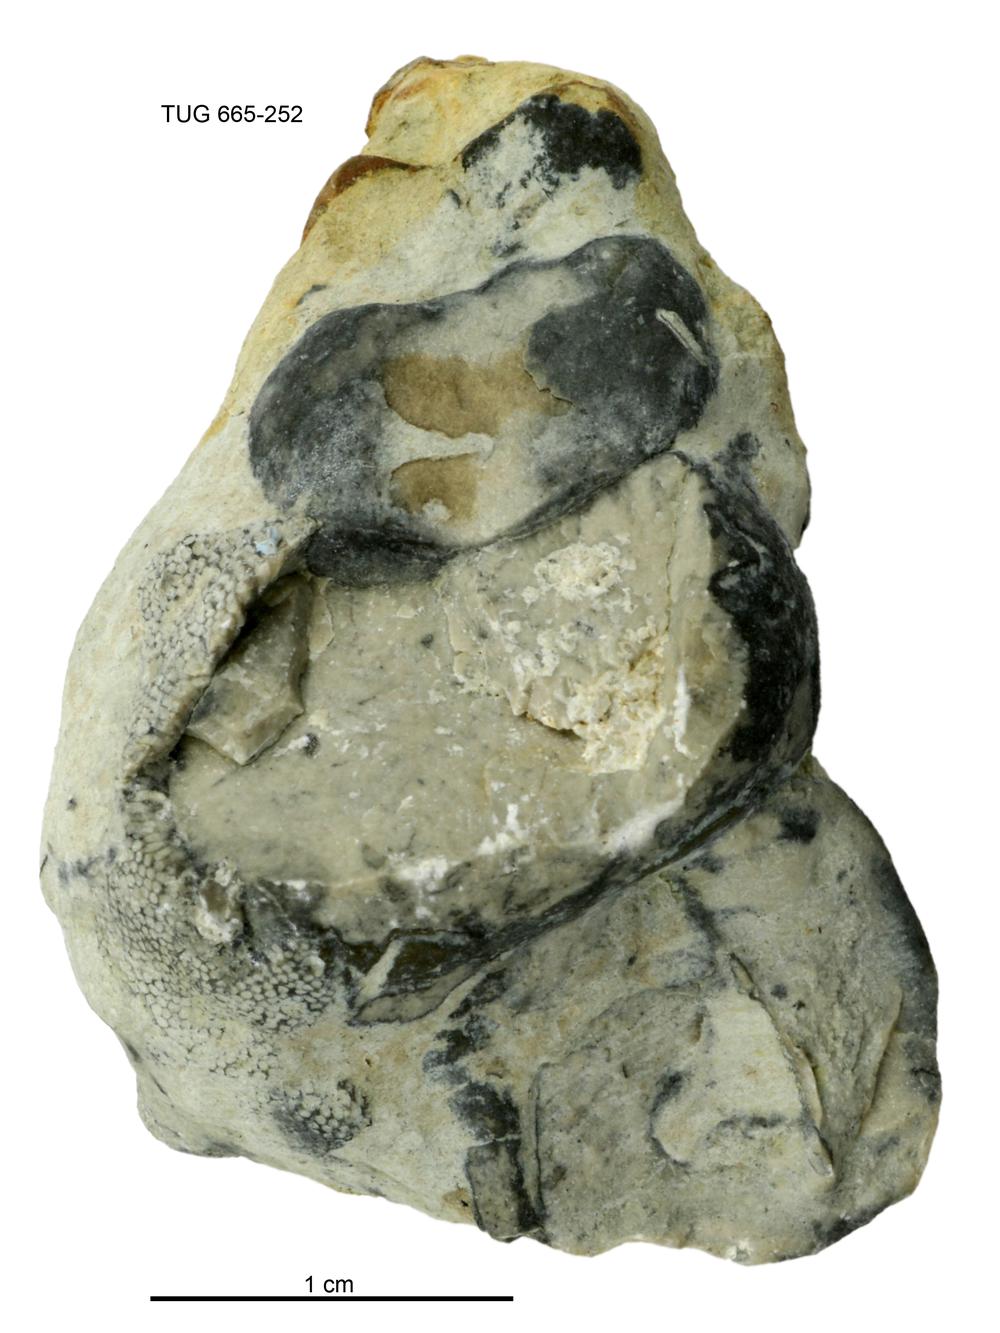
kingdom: Animalia
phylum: Mollusca
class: Gastropoda
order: Pleurotomariida
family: Murchisoniidae
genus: Murchisonia
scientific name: Murchisonia insignis
